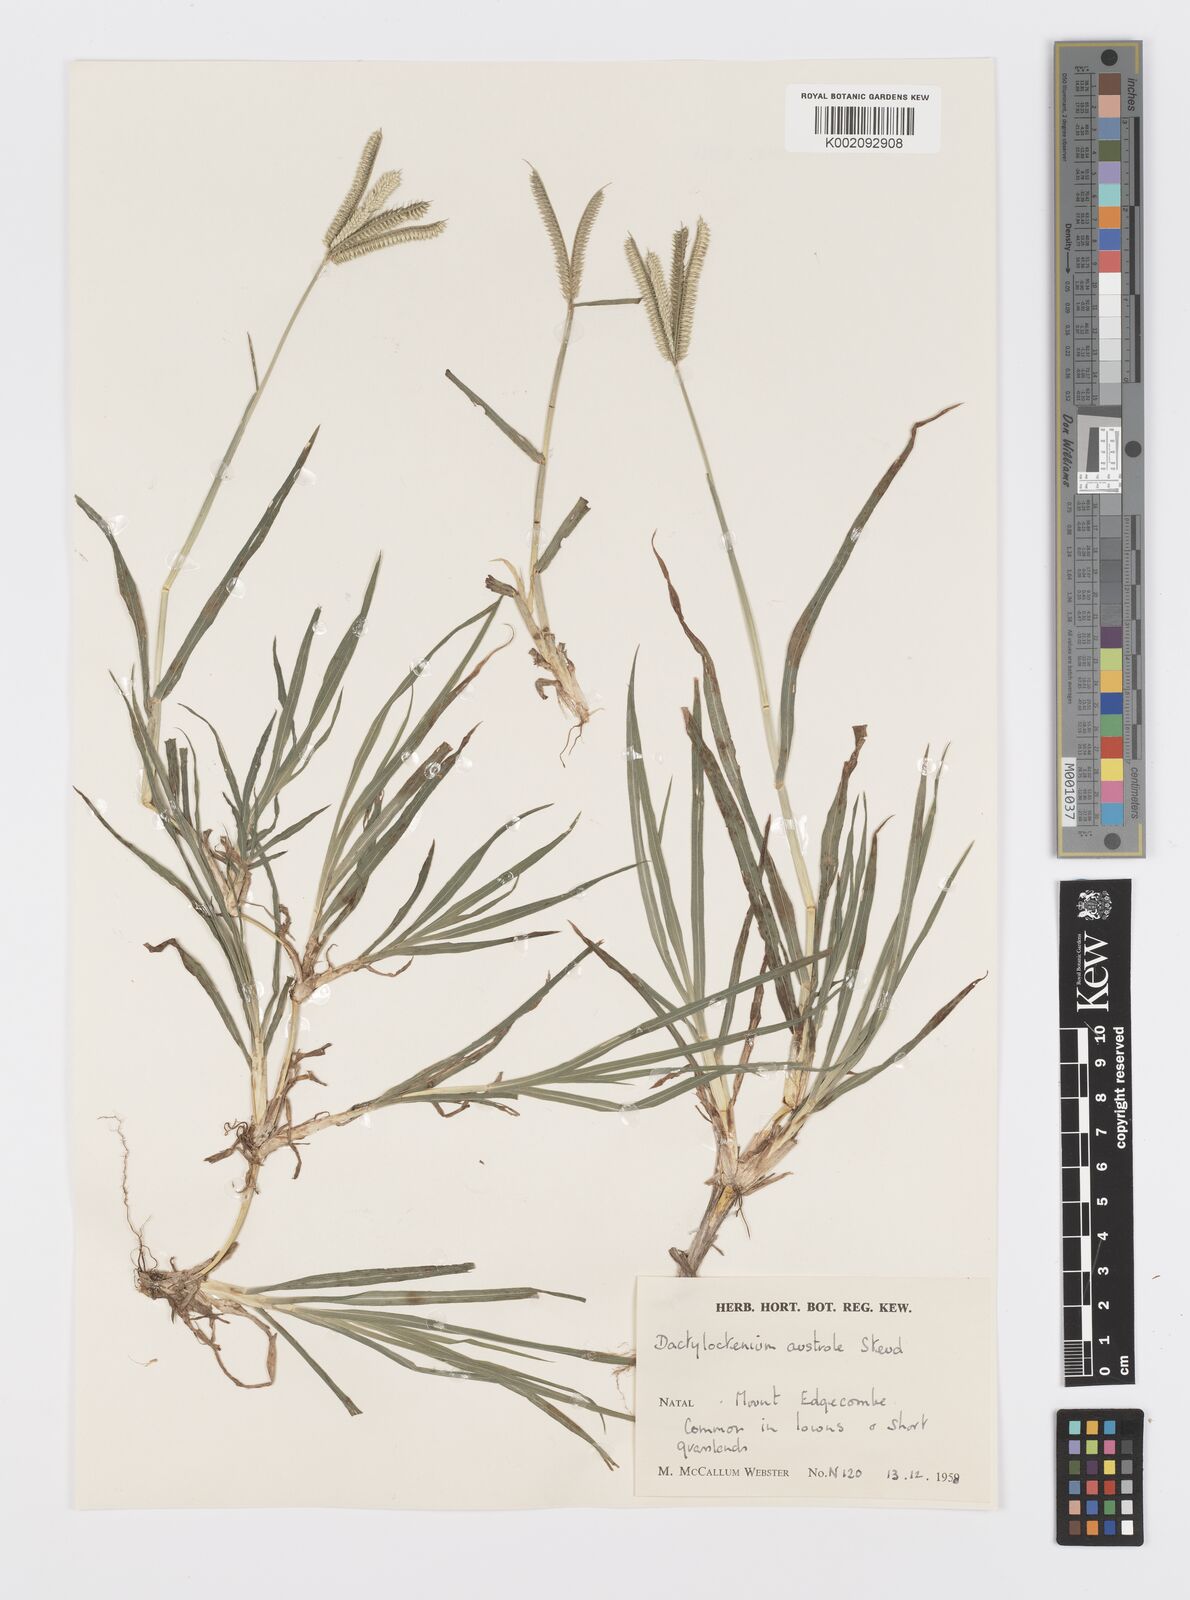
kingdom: Plantae
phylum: Tracheophyta
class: Liliopsida
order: Poales
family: Poaceae
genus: Dactyloctenium
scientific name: Dactyloctenium australe
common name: Durban grass
